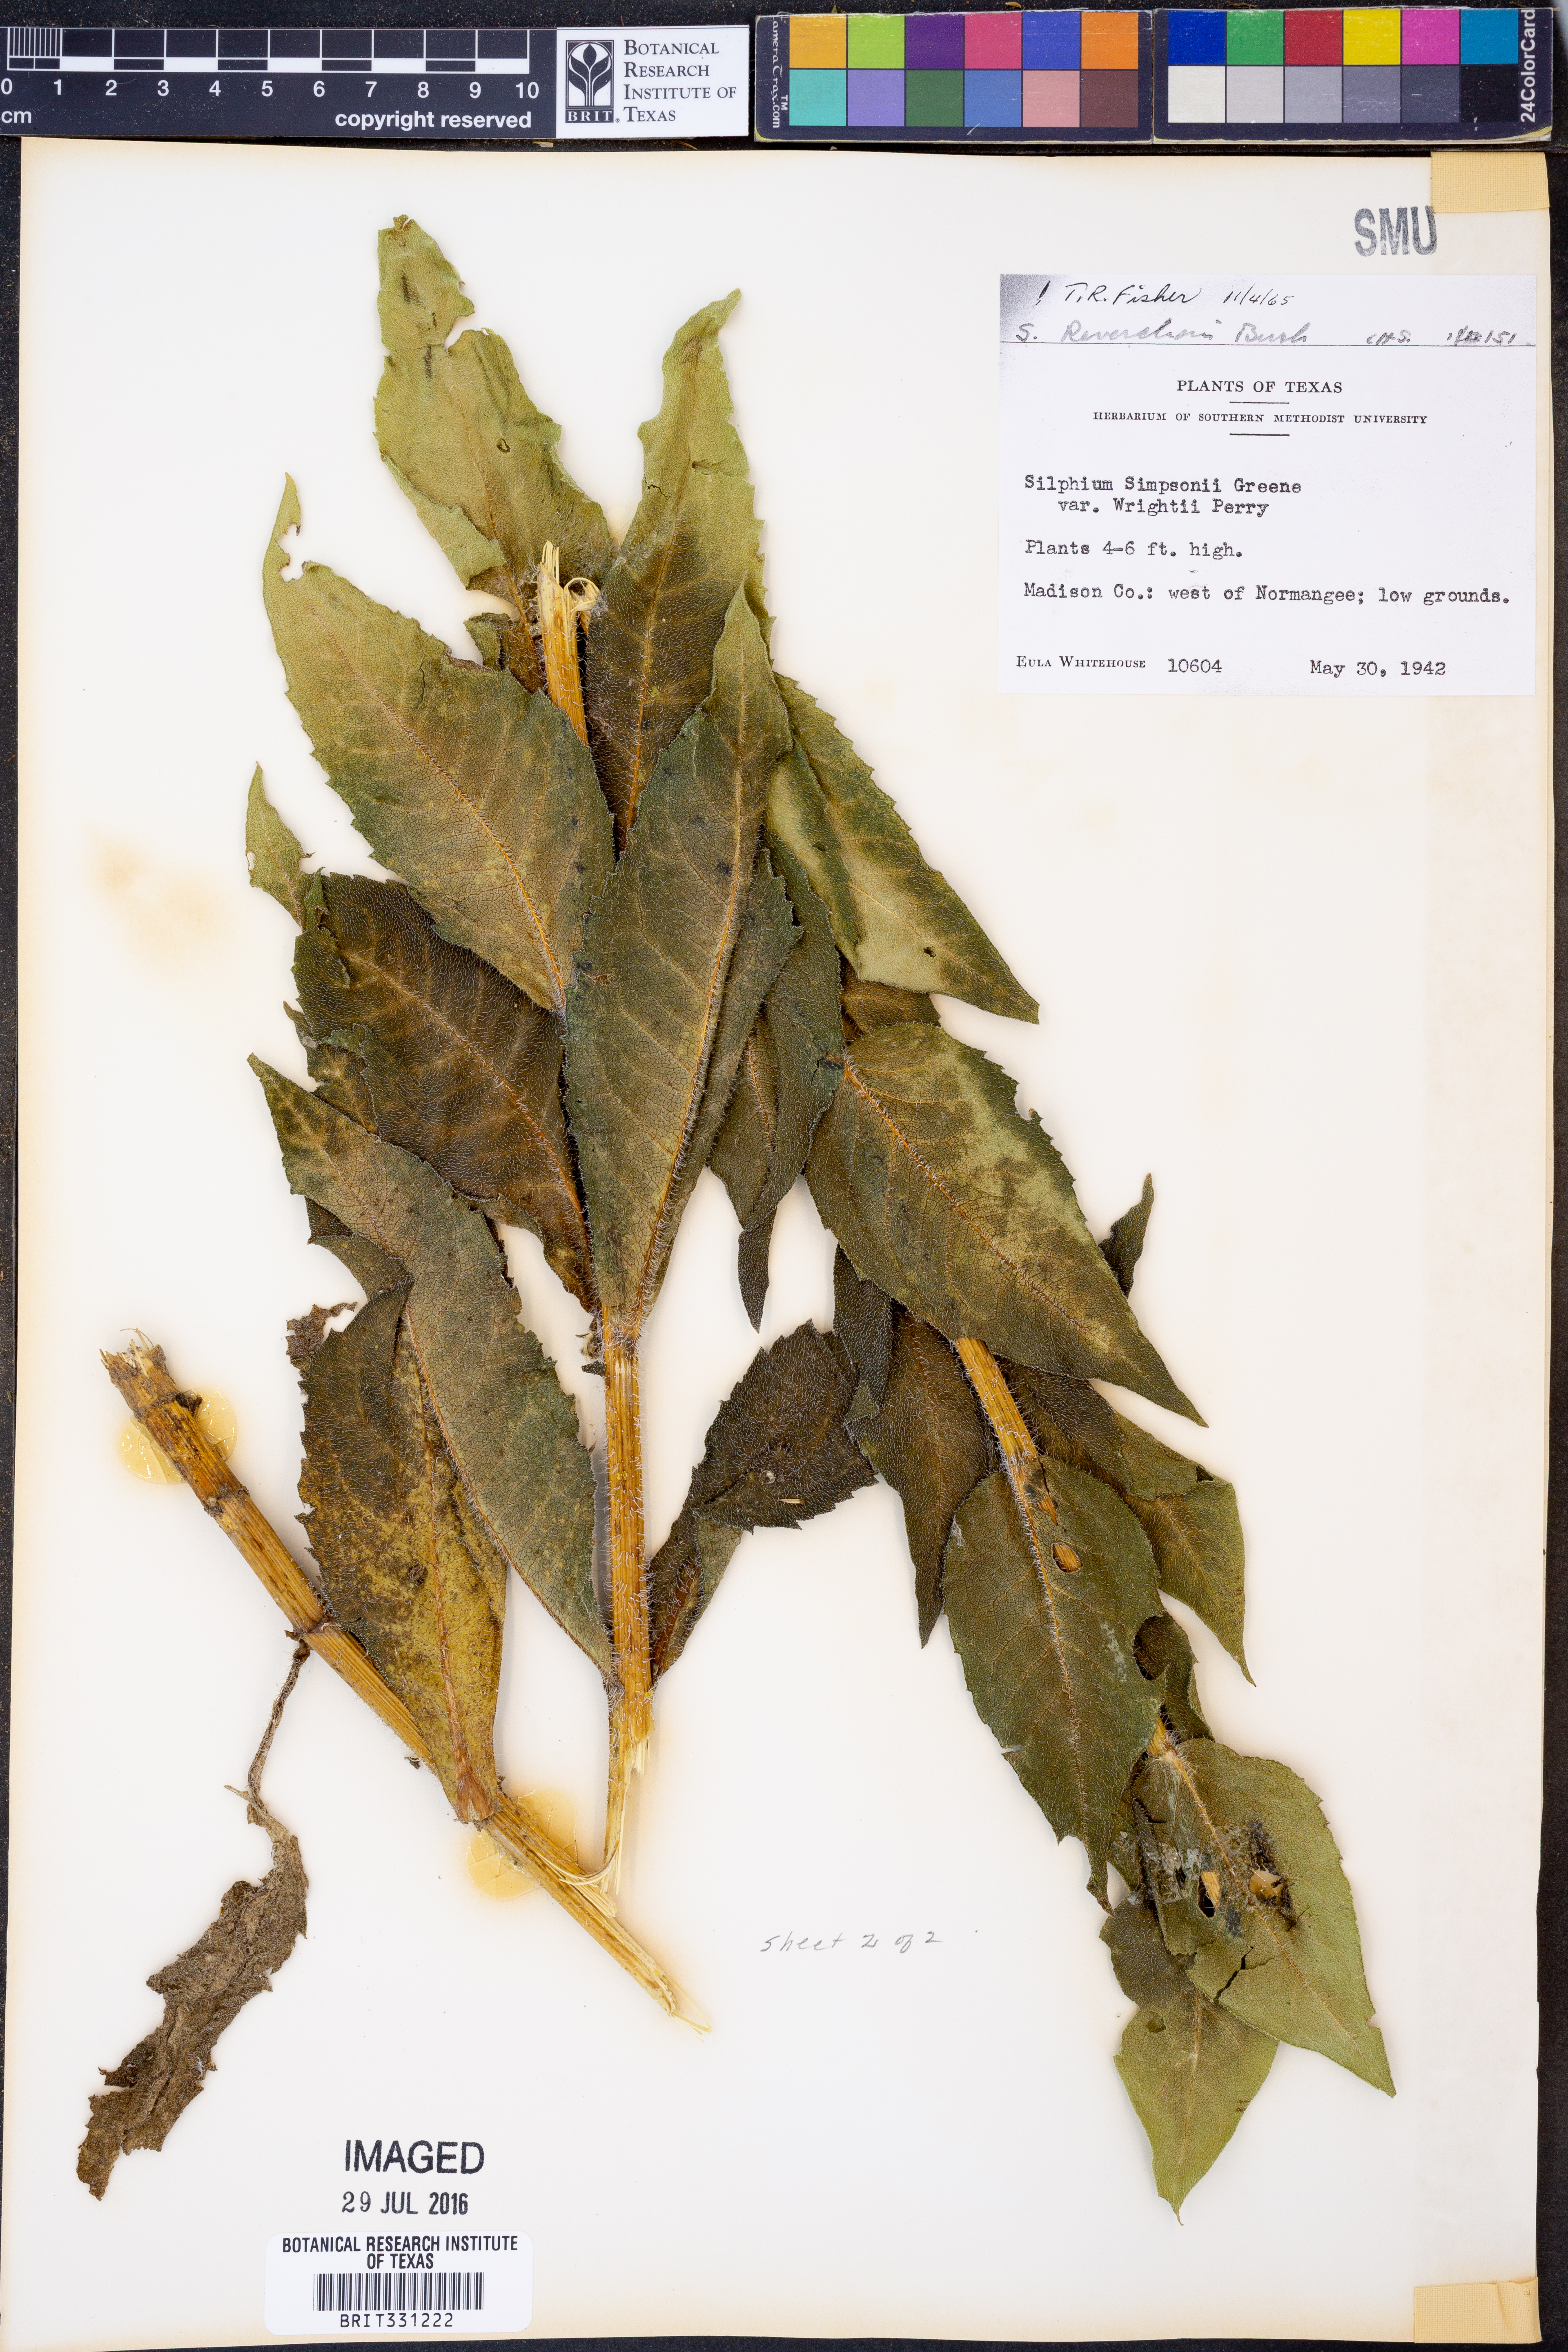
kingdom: Plantae
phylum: Tracheophyta
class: Magnoliopsida
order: Asterales
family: Asteraceae
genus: Silphium
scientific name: Silphium radula
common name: Roughleaf rosinweed
